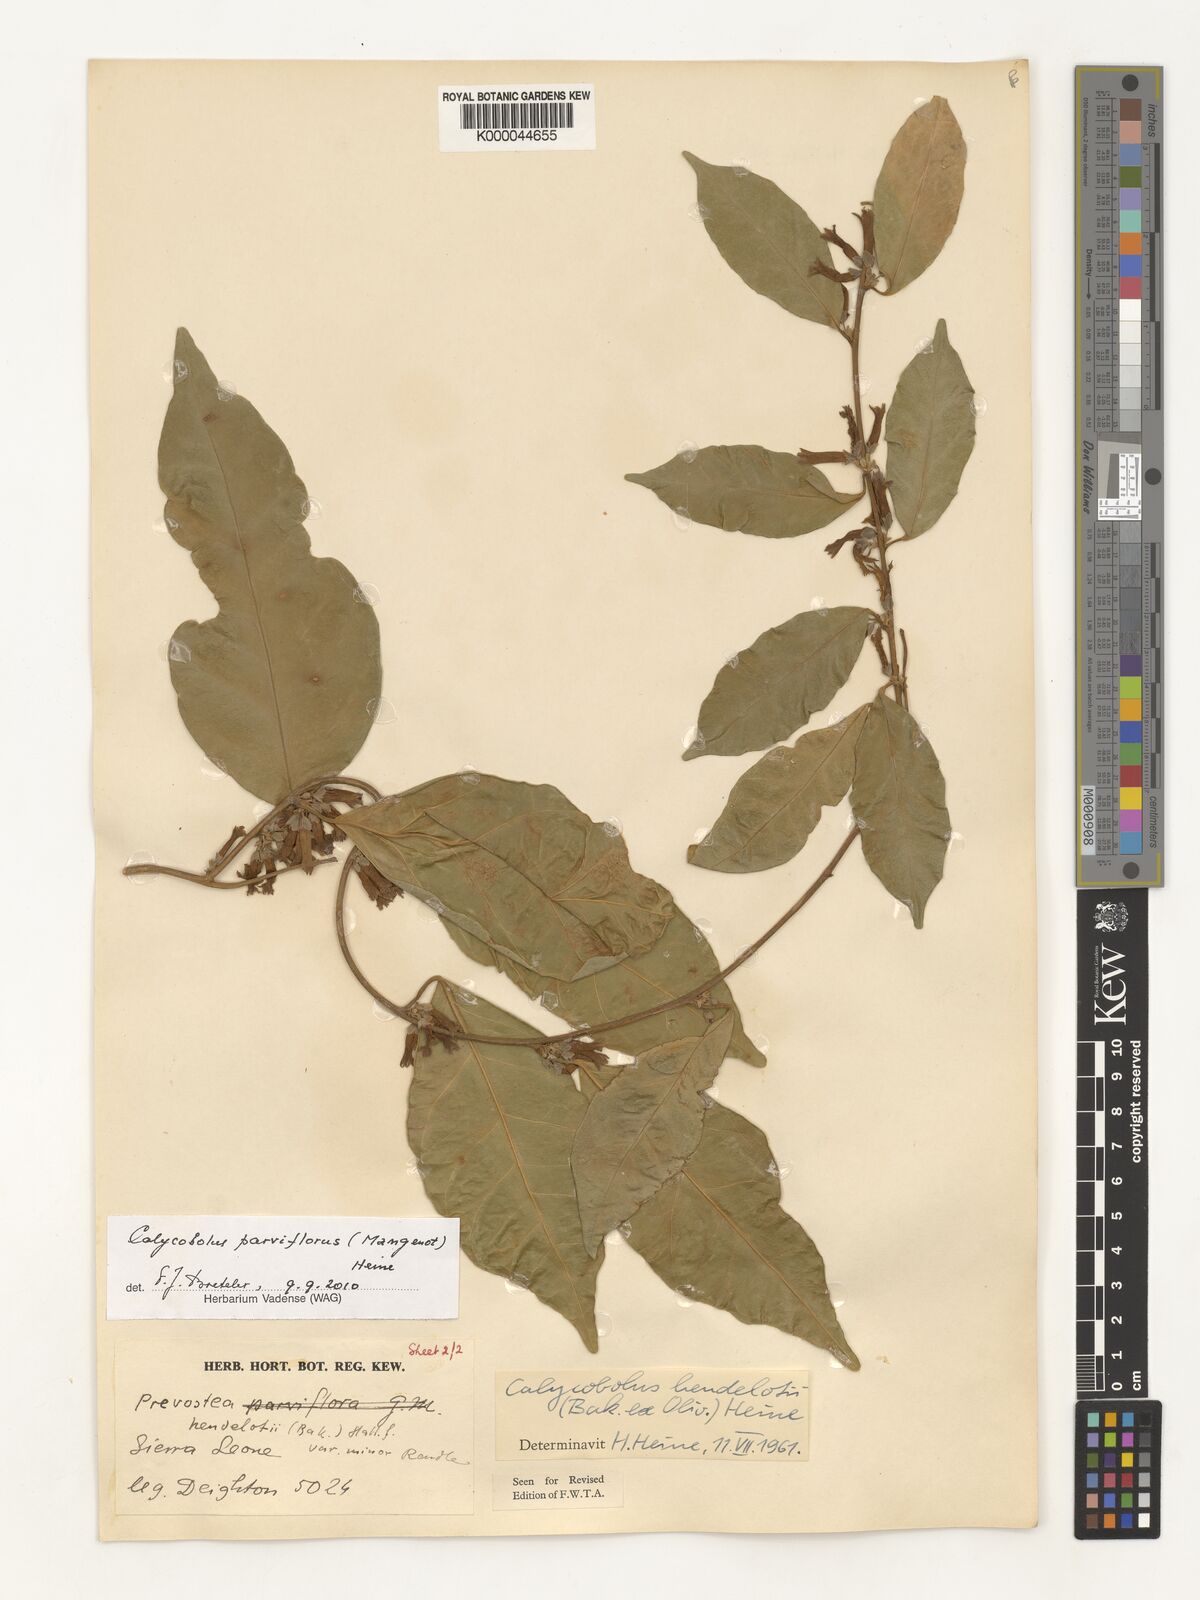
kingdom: Plantae
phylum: Tracheophyta
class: Magnoliopsida
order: Solanales
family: Convolvulaceae
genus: Calycobolus
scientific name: Calycobolus parviflorus
